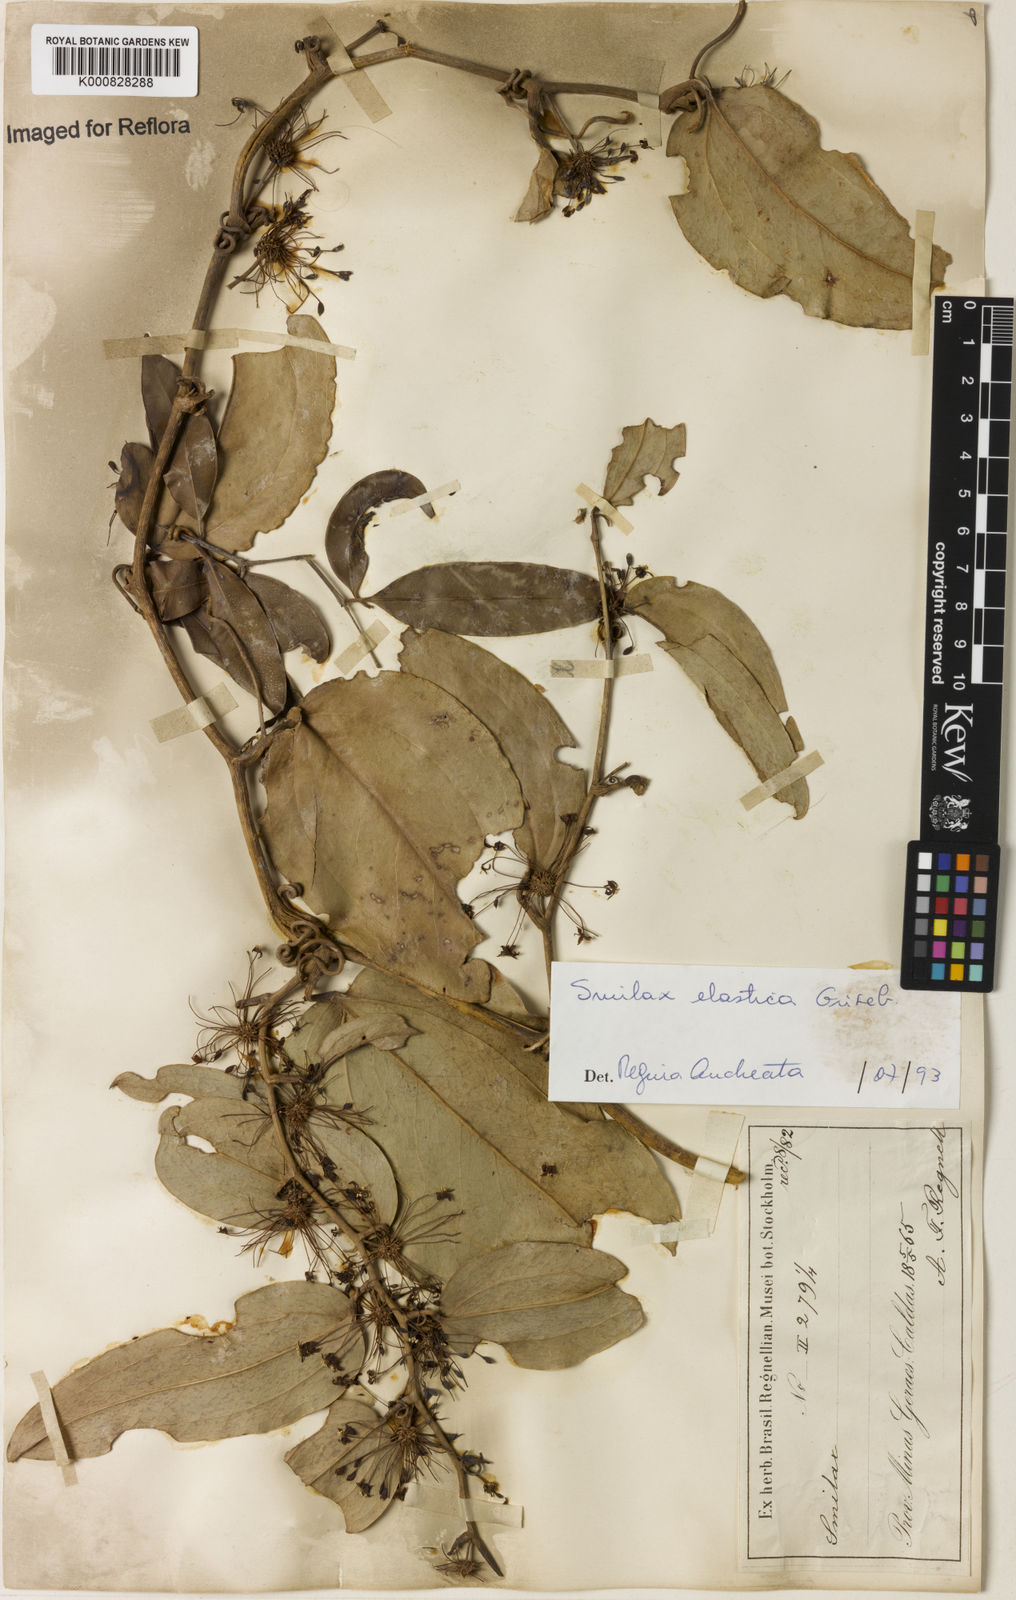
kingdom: Plantae
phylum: Tracheophyta
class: Liliopsida
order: Liliales
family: Smilacaceae
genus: Smilax
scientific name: Smilax elastica
